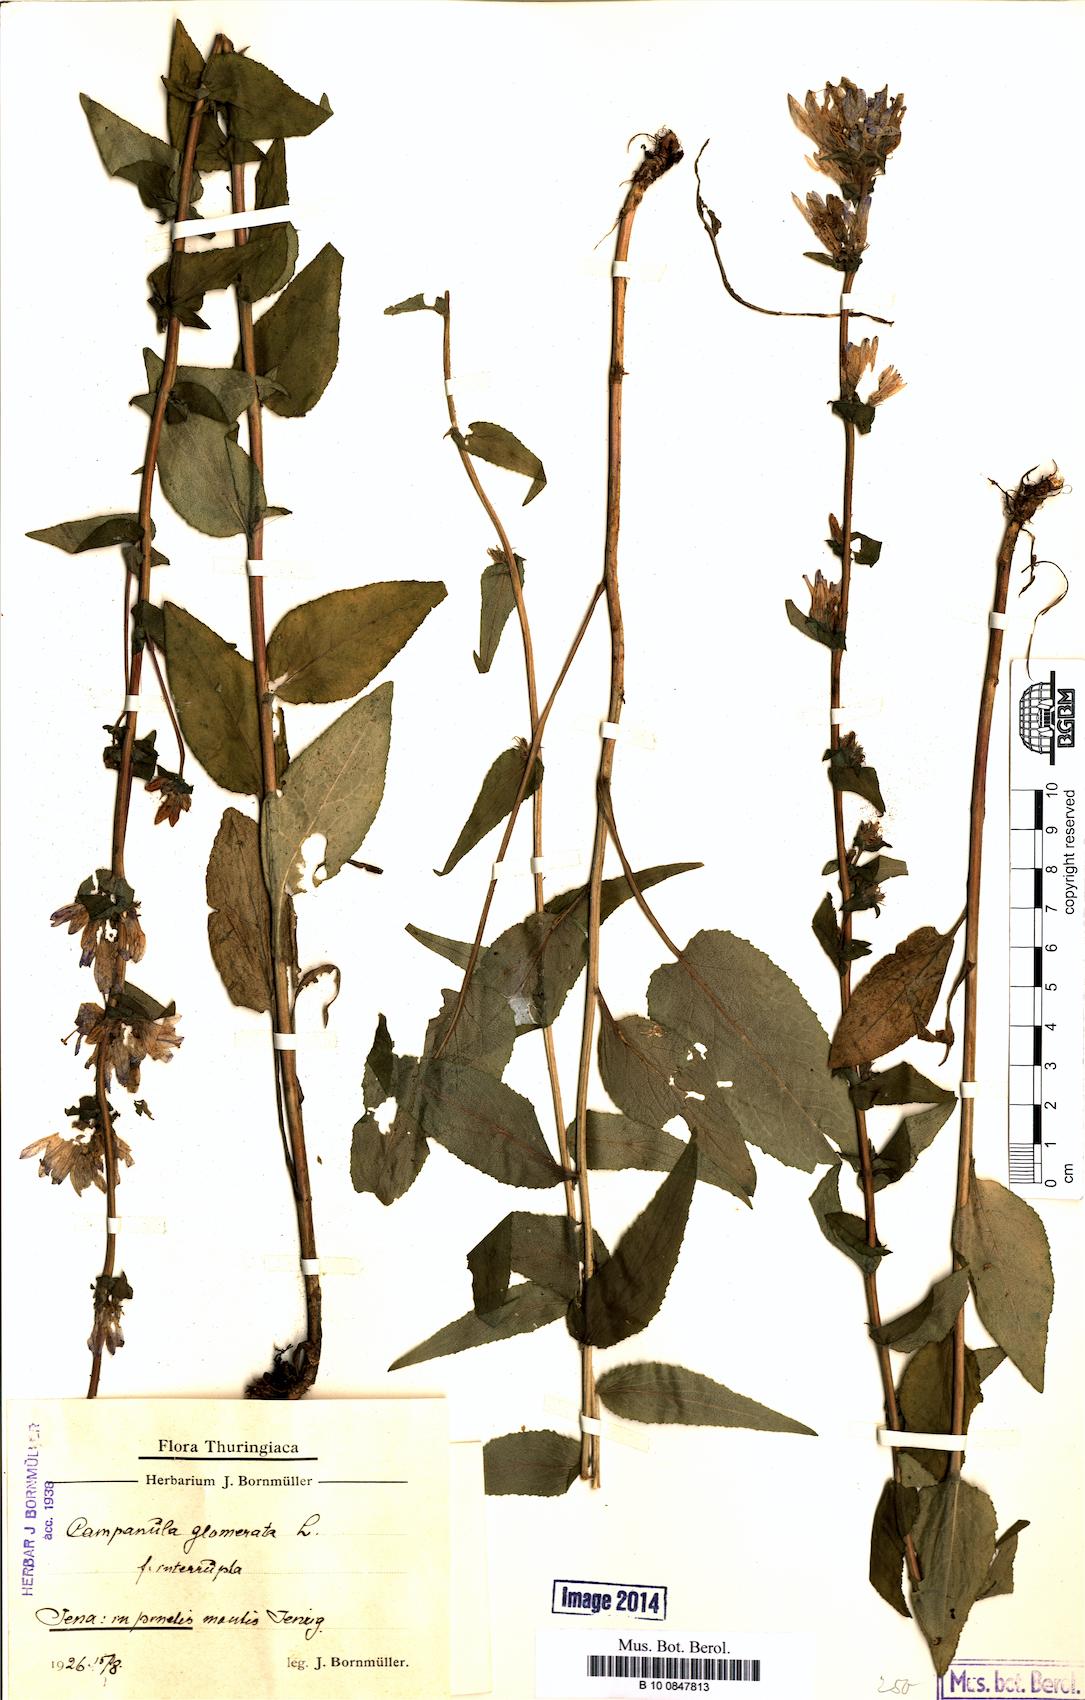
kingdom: Plantae
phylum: Tracheophyta
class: Magnoliopsida
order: Asterales
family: Campanulaceae
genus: Campanula
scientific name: Campanula glomerata
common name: Clustered bellflower
